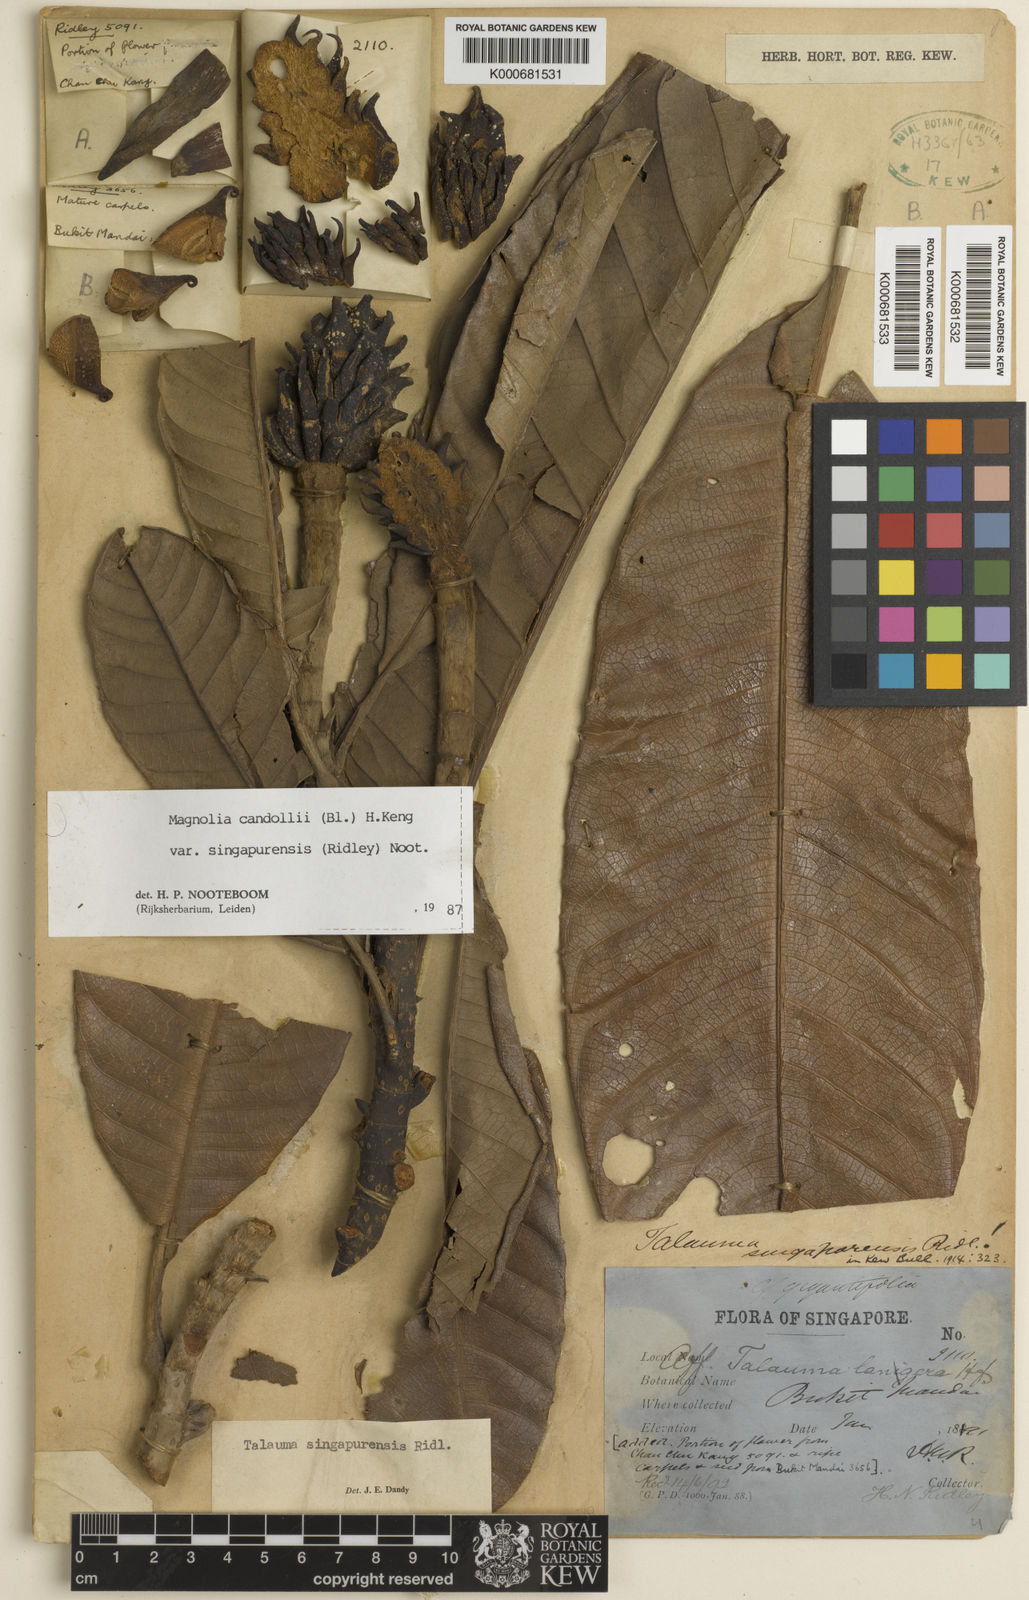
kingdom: Plantae
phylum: Tracheophyta
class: Magnoliopsida
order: Magnoliales
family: Magnoliaceae
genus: Magnolia
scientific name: Magnolia singapurensis
